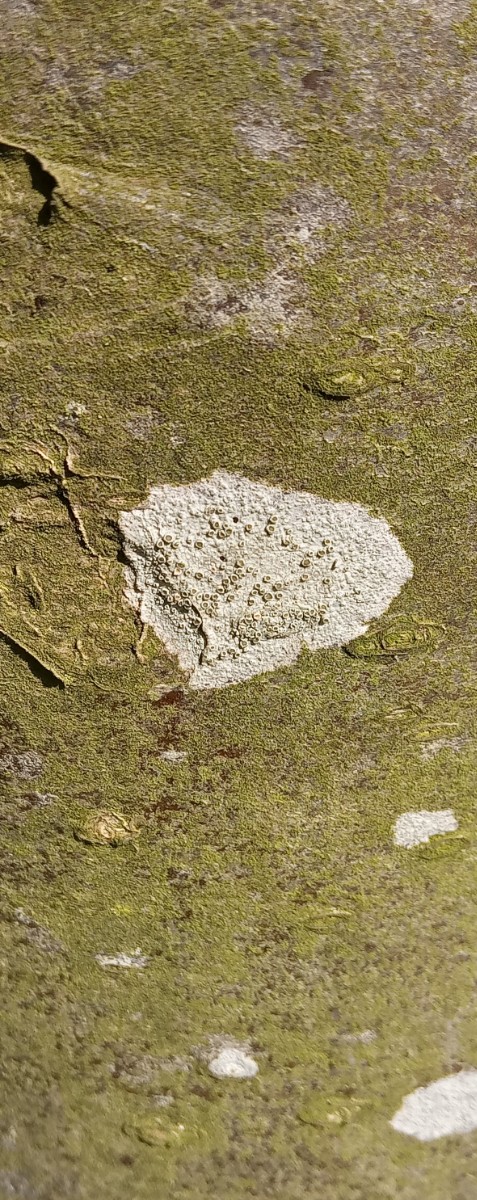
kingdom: Fungi
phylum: Ascomycota
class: Lecanoromycetes
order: Lecanorales
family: Lecanoraceae
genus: Lecanora
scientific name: Lecanora chlarotera
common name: brun kantskivelav
